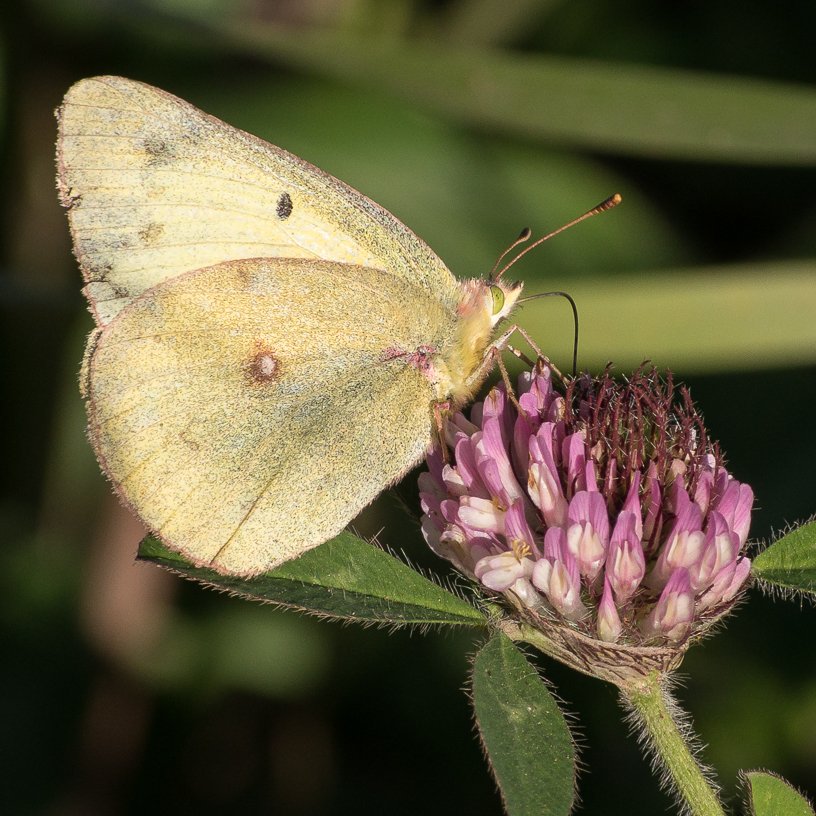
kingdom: Animalia
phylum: Arthropoda
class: Insecta
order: Lepidoptera
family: Pieridae
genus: Colias
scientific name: Colias philodice
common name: Clouded Sulphur
